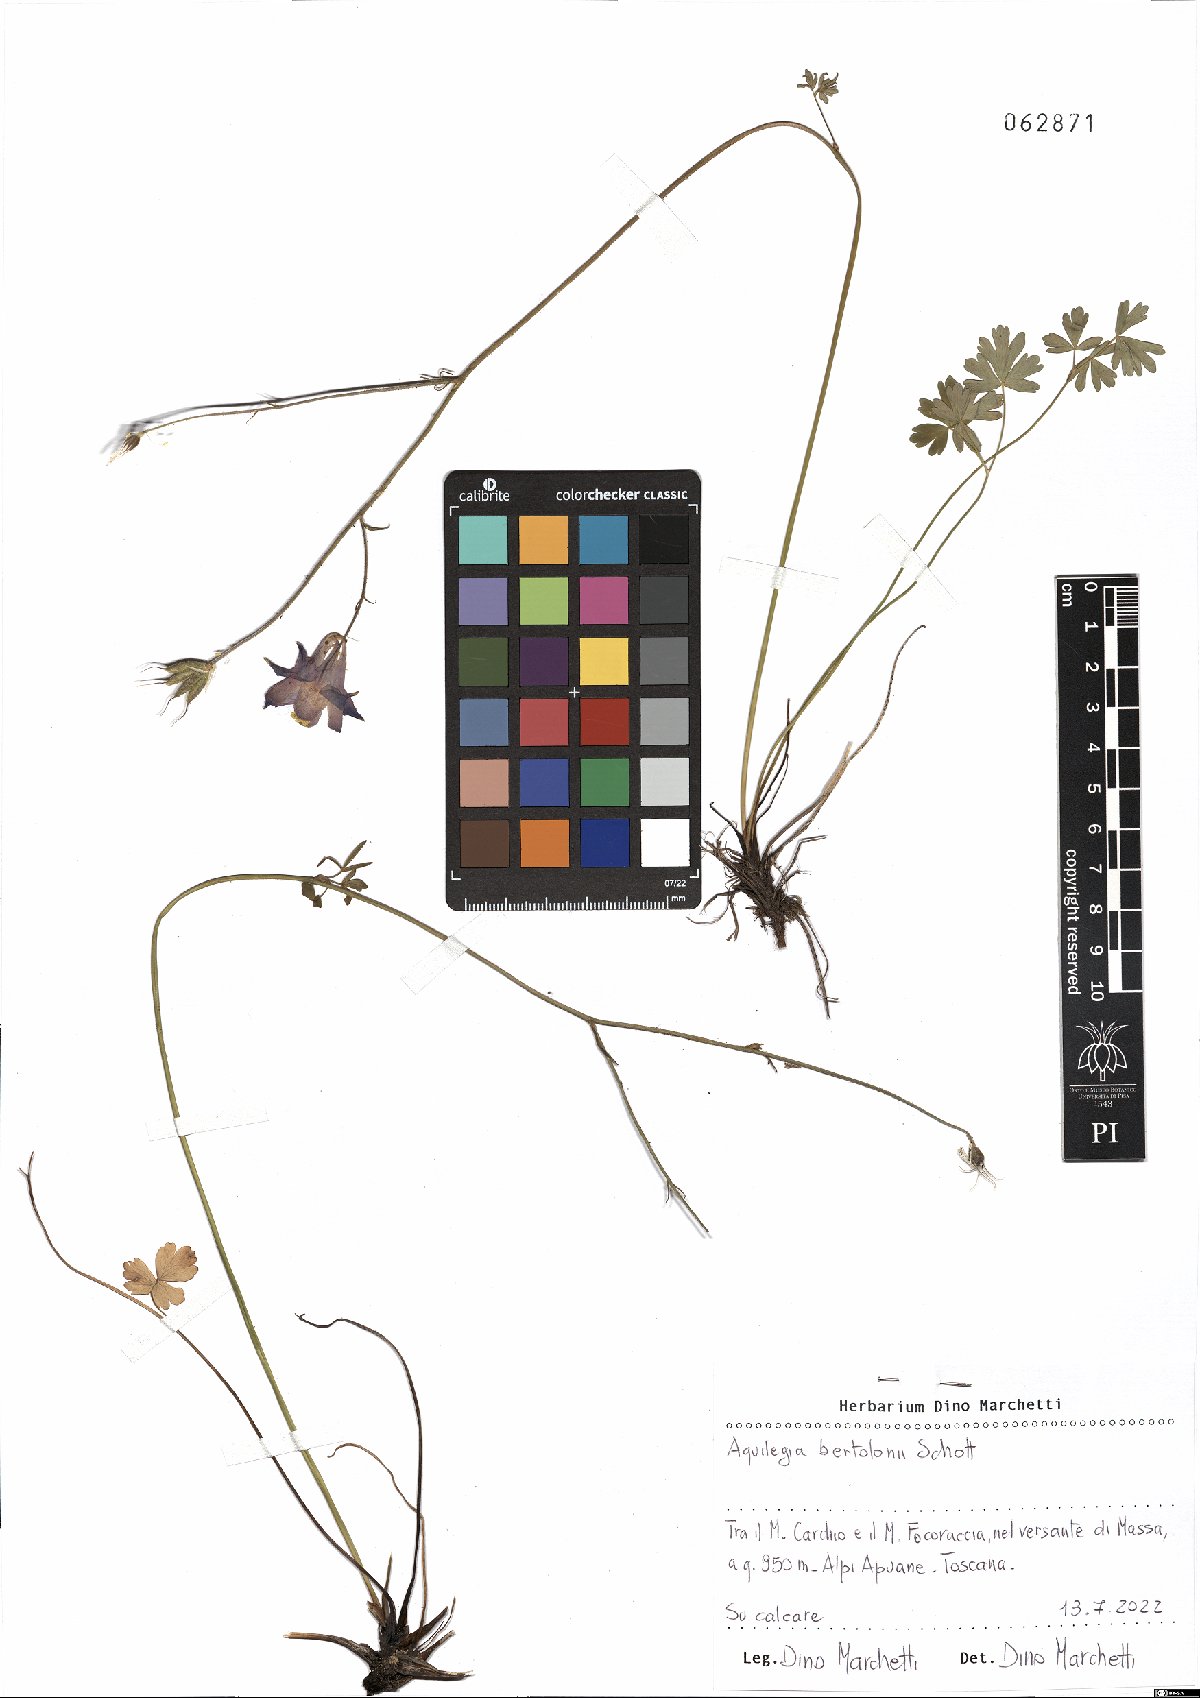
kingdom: Plantae
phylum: Tracheophyta
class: Magnoliopsida
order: Ranunculales
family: Ranunculaceae
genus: Aquilegia
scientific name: Aquilegia bertolonii
